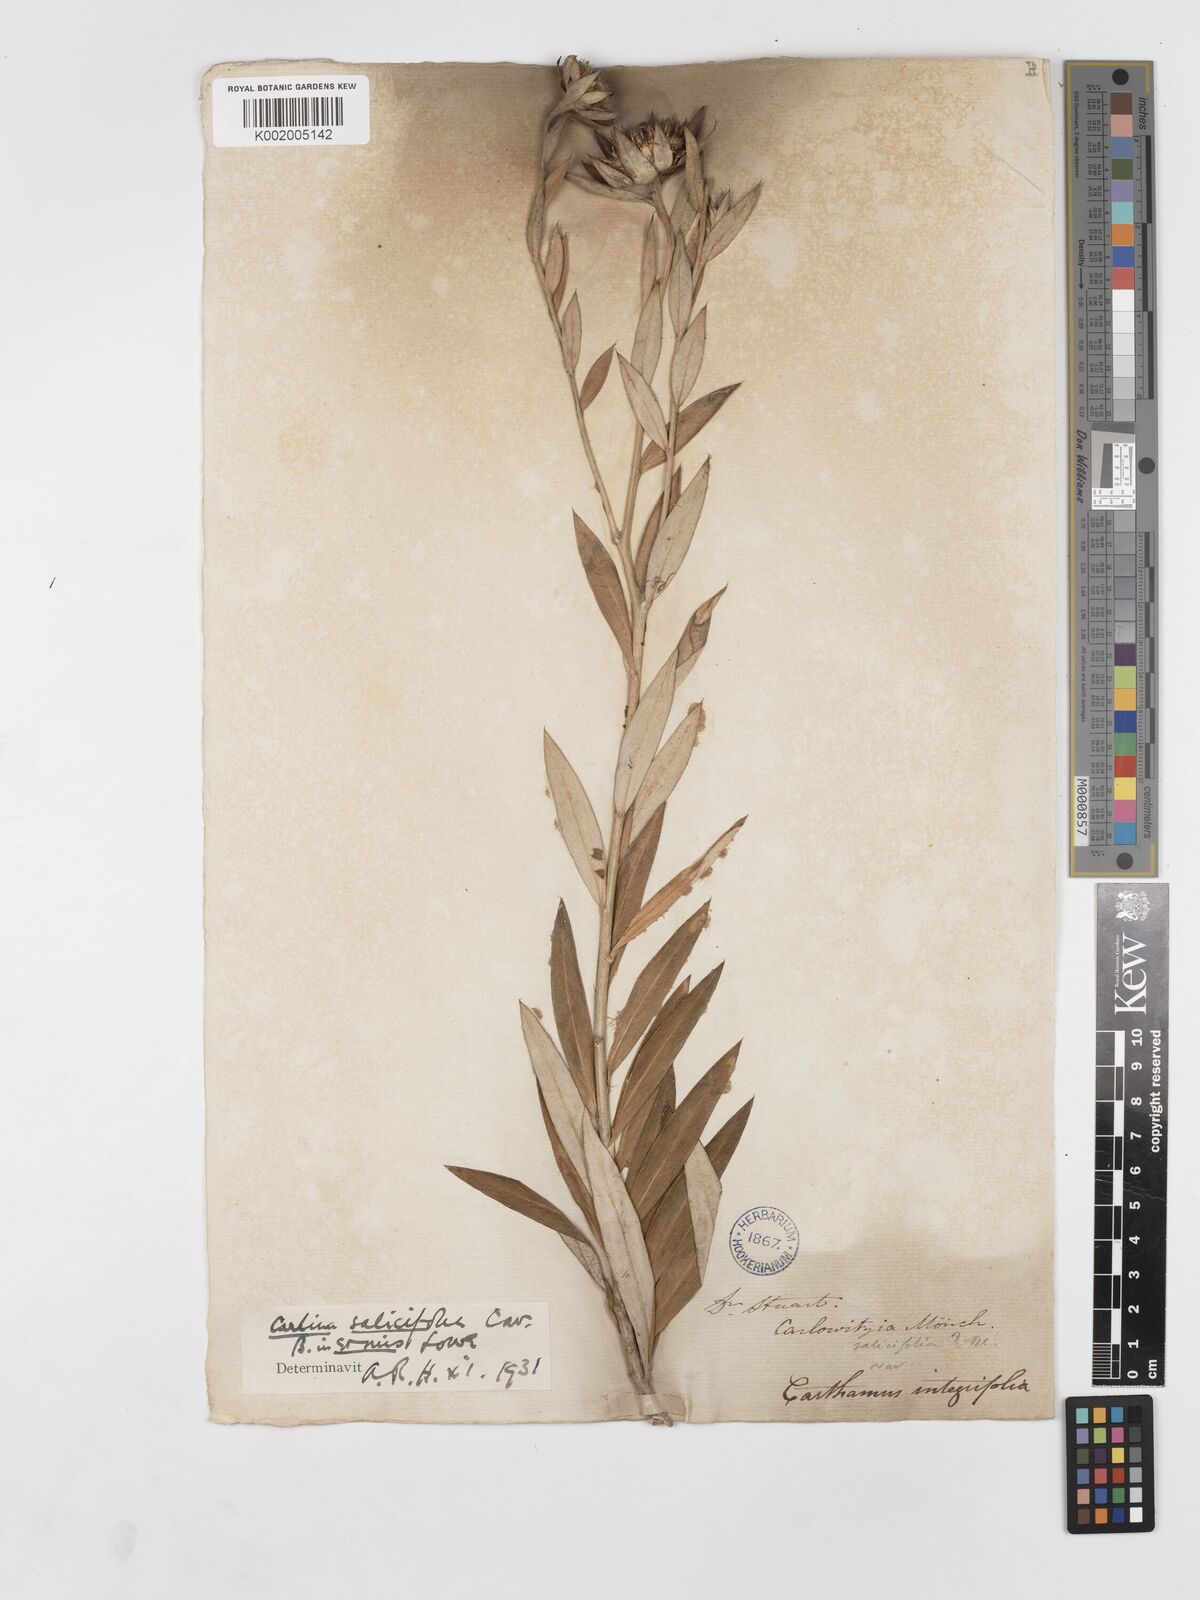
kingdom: Plantae
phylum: Tracheophyta
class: Magnoliopsida
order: Asterales
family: Asteraceae
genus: Carlina
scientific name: Carlina salicifolia
